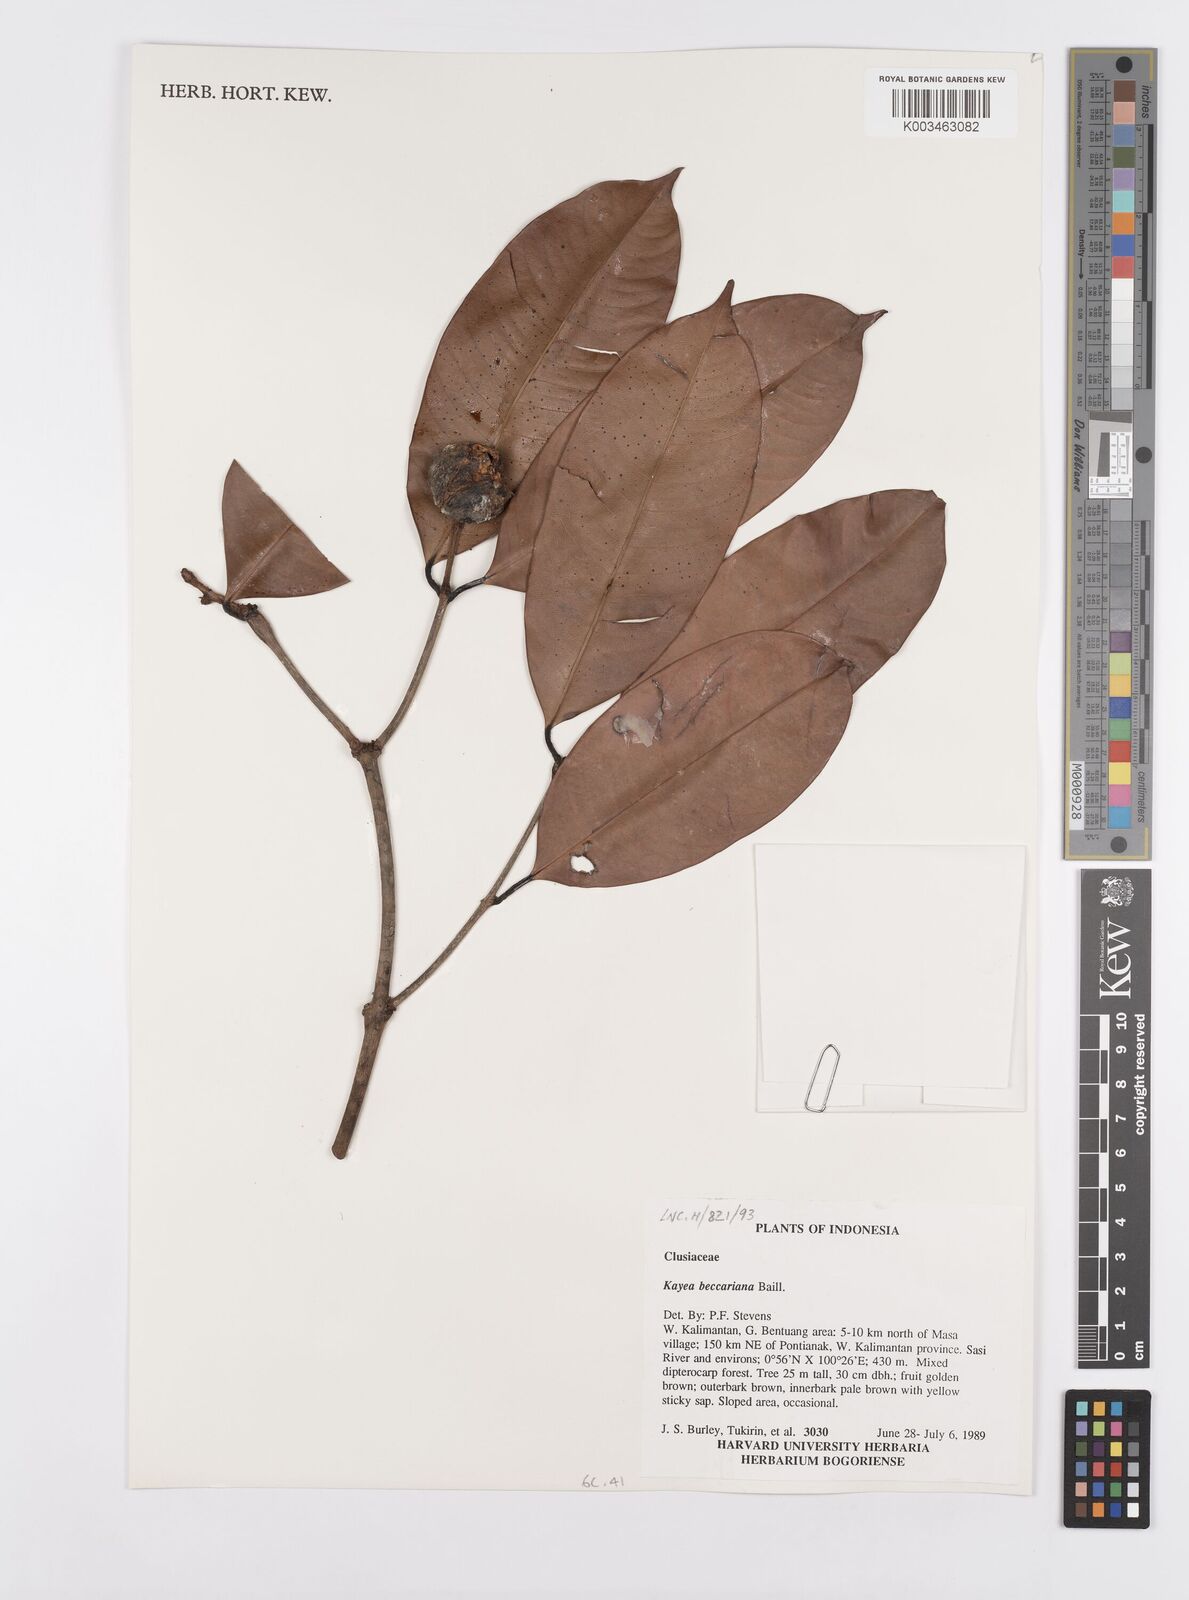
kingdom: Plantae
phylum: Tracheophyta
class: Magnoliopsida
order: Malpighiales
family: Calophyllaceae
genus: Kayea
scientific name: Kayea beccariana
